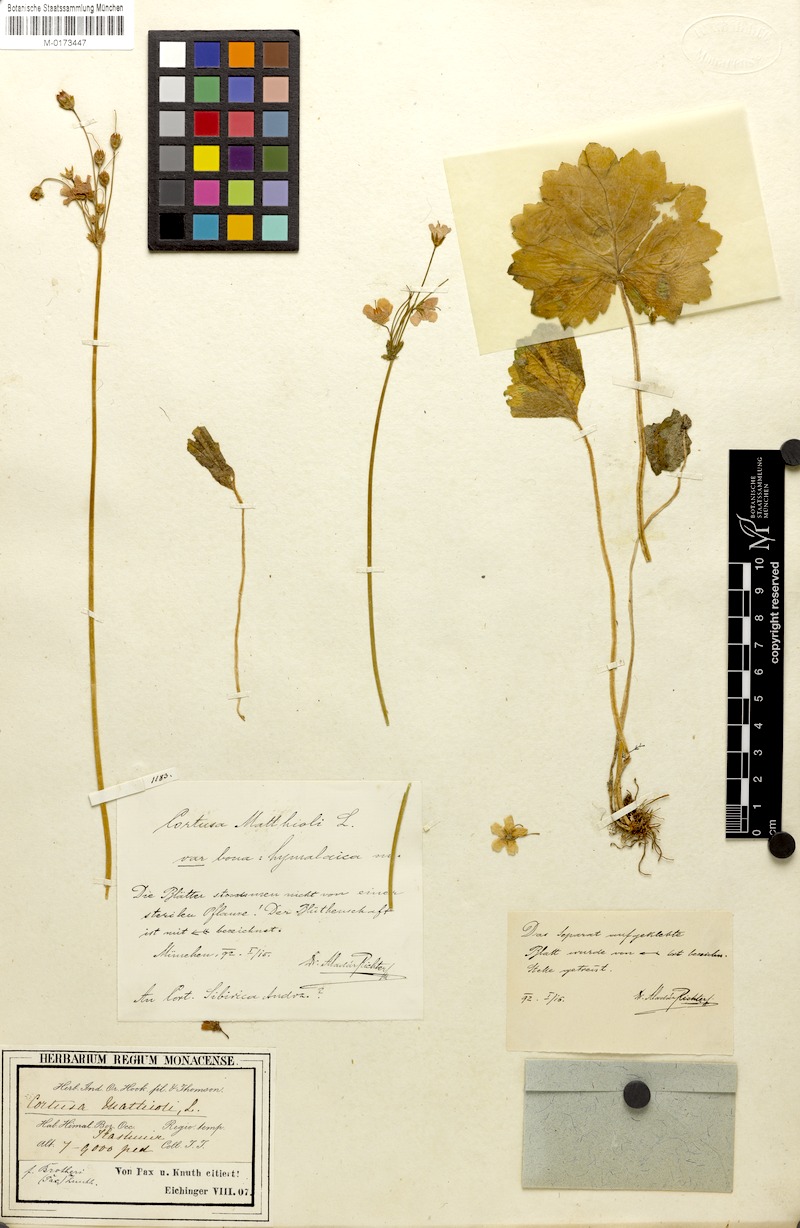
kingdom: Plantae
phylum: Tracheophyta
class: Magnoliopsida
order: Ericales
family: Primulaceae
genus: Primula
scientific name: Primula Cortusa brotheri
